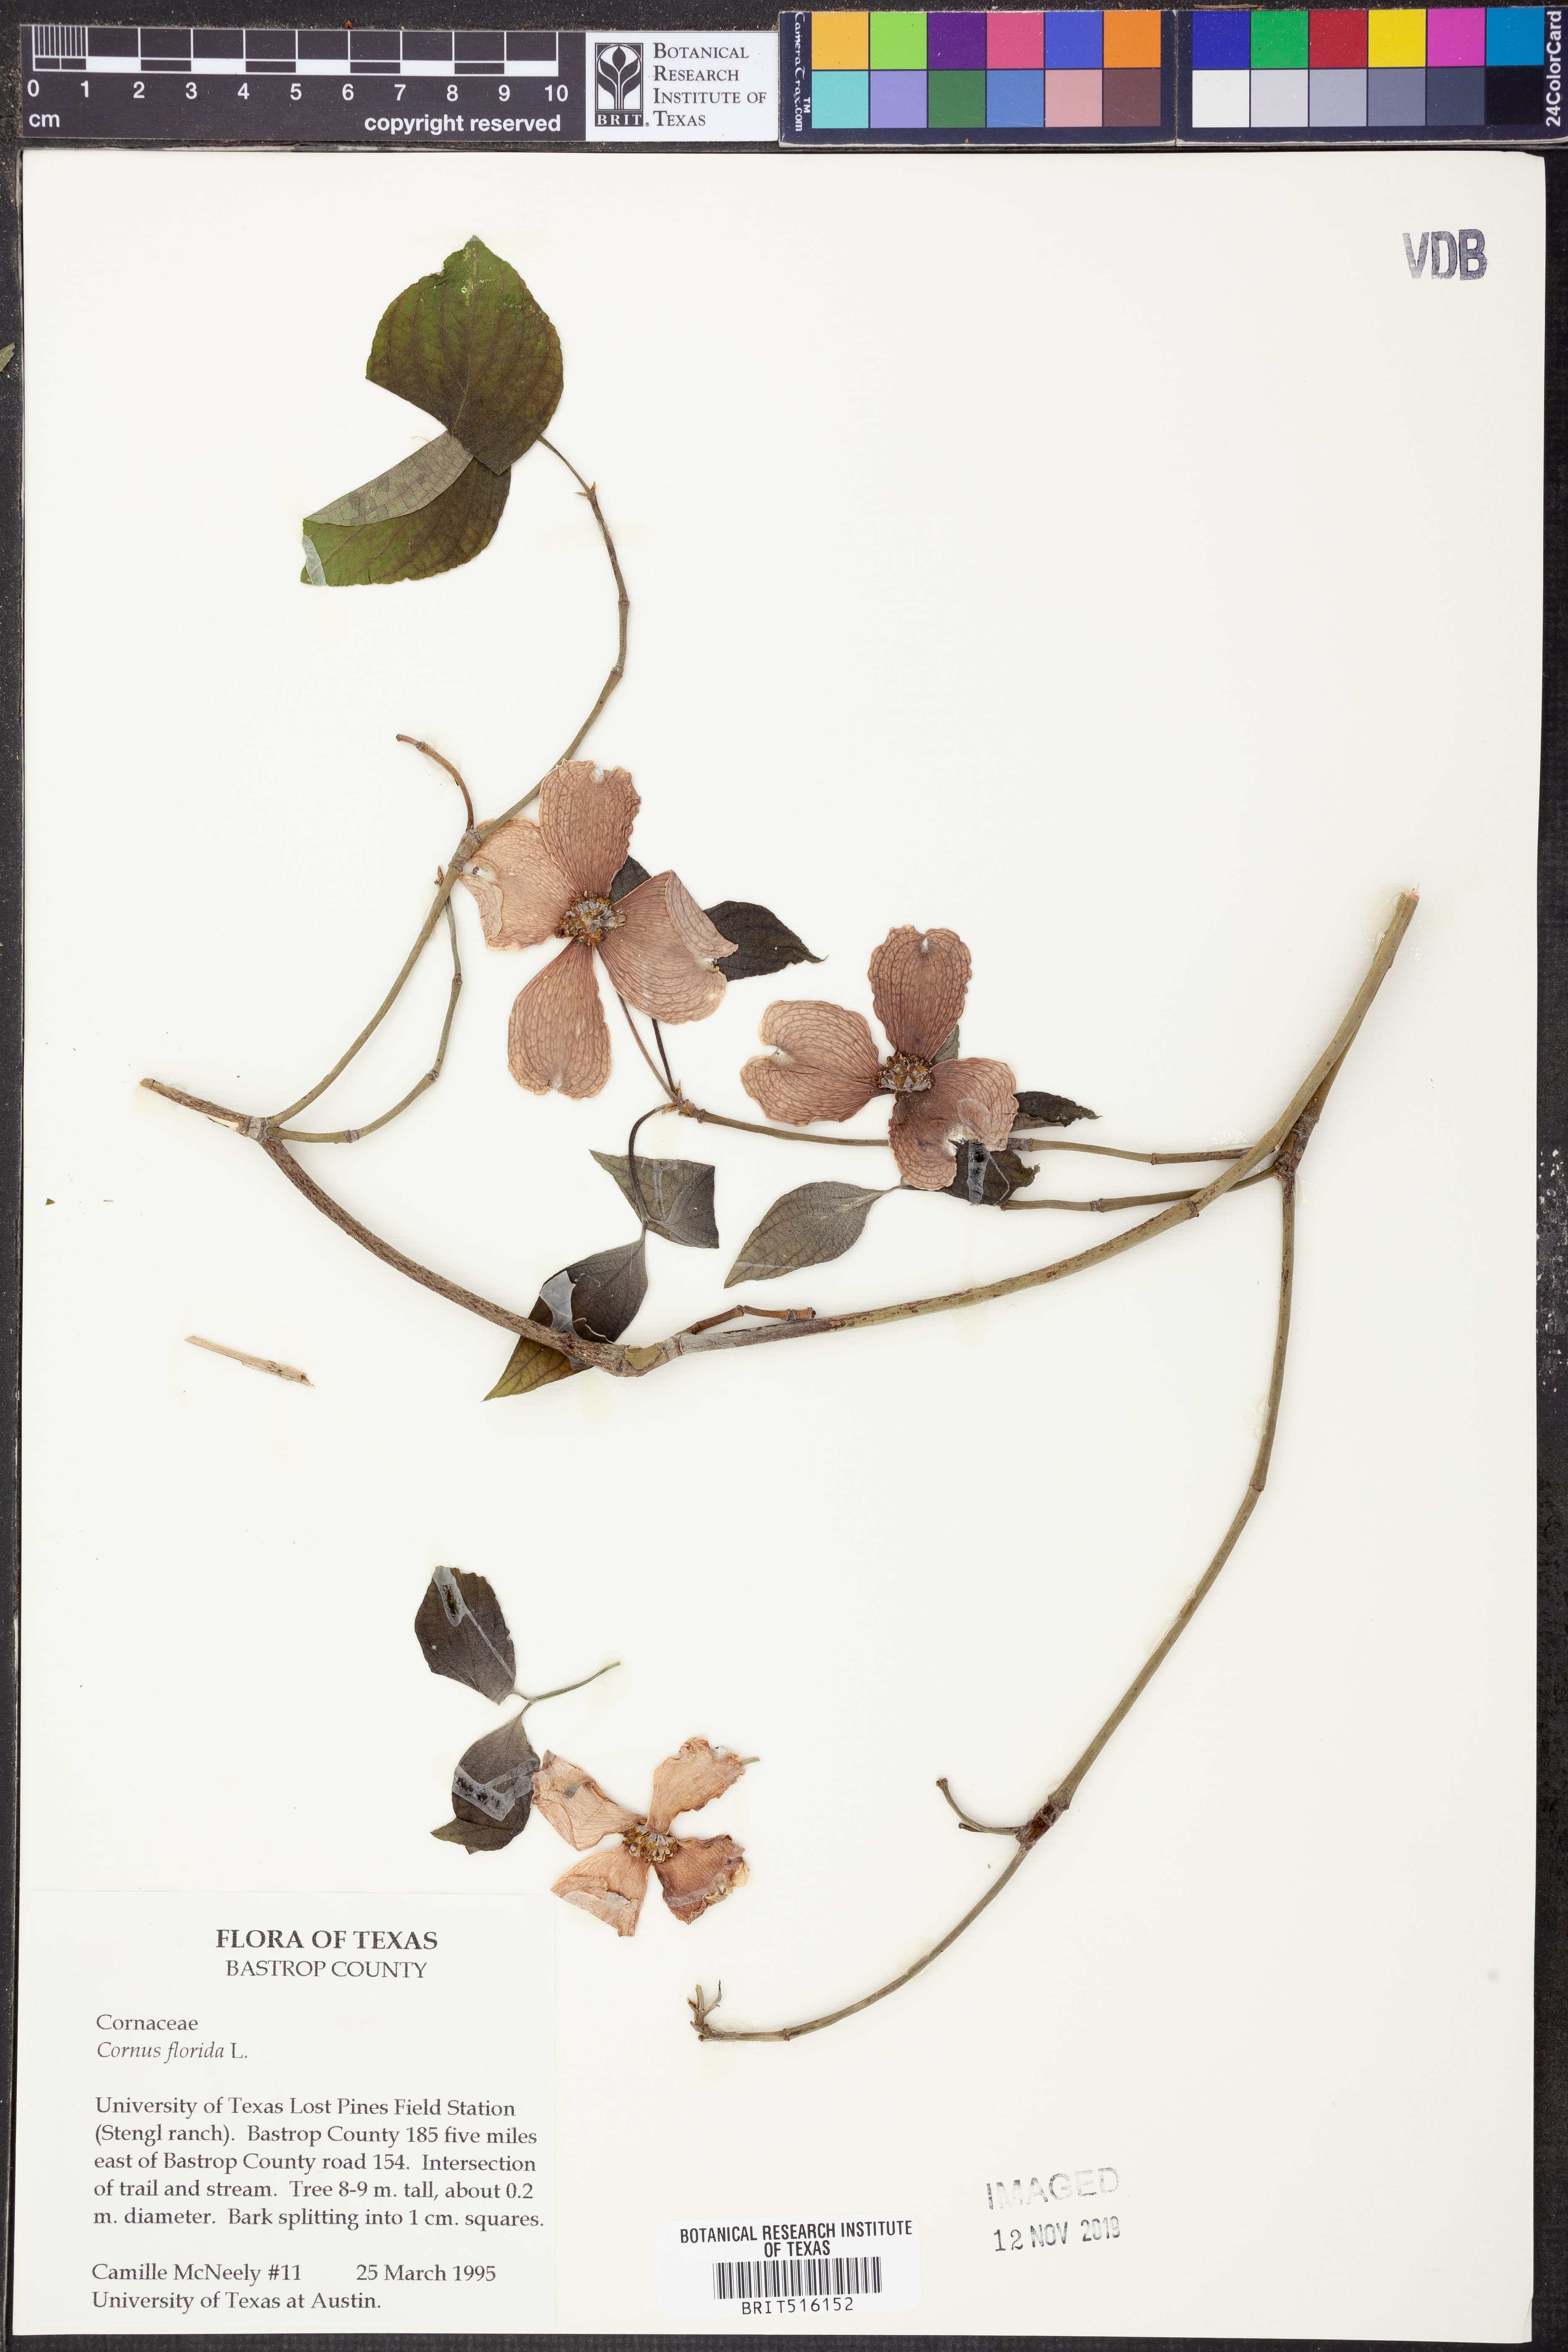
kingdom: Plantae
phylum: Tracheophyta
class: Magnoliopsida
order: Cornales
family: Cornaceae
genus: Cornus
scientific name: Cornus florida
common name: Flowering dogwood
